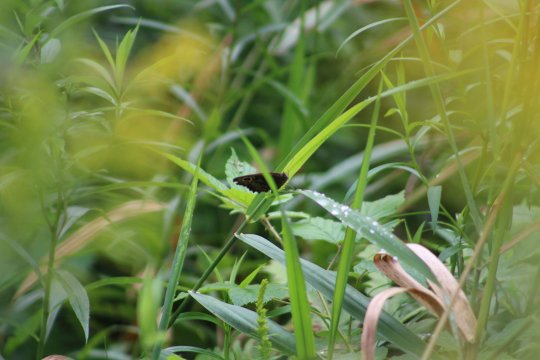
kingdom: Animalia
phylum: Arthropoda
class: Insecta
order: Lepidoptera
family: Nymphalidae
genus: Cercyonis
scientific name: Cercyonis pegala
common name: Common Wood-Nymph
